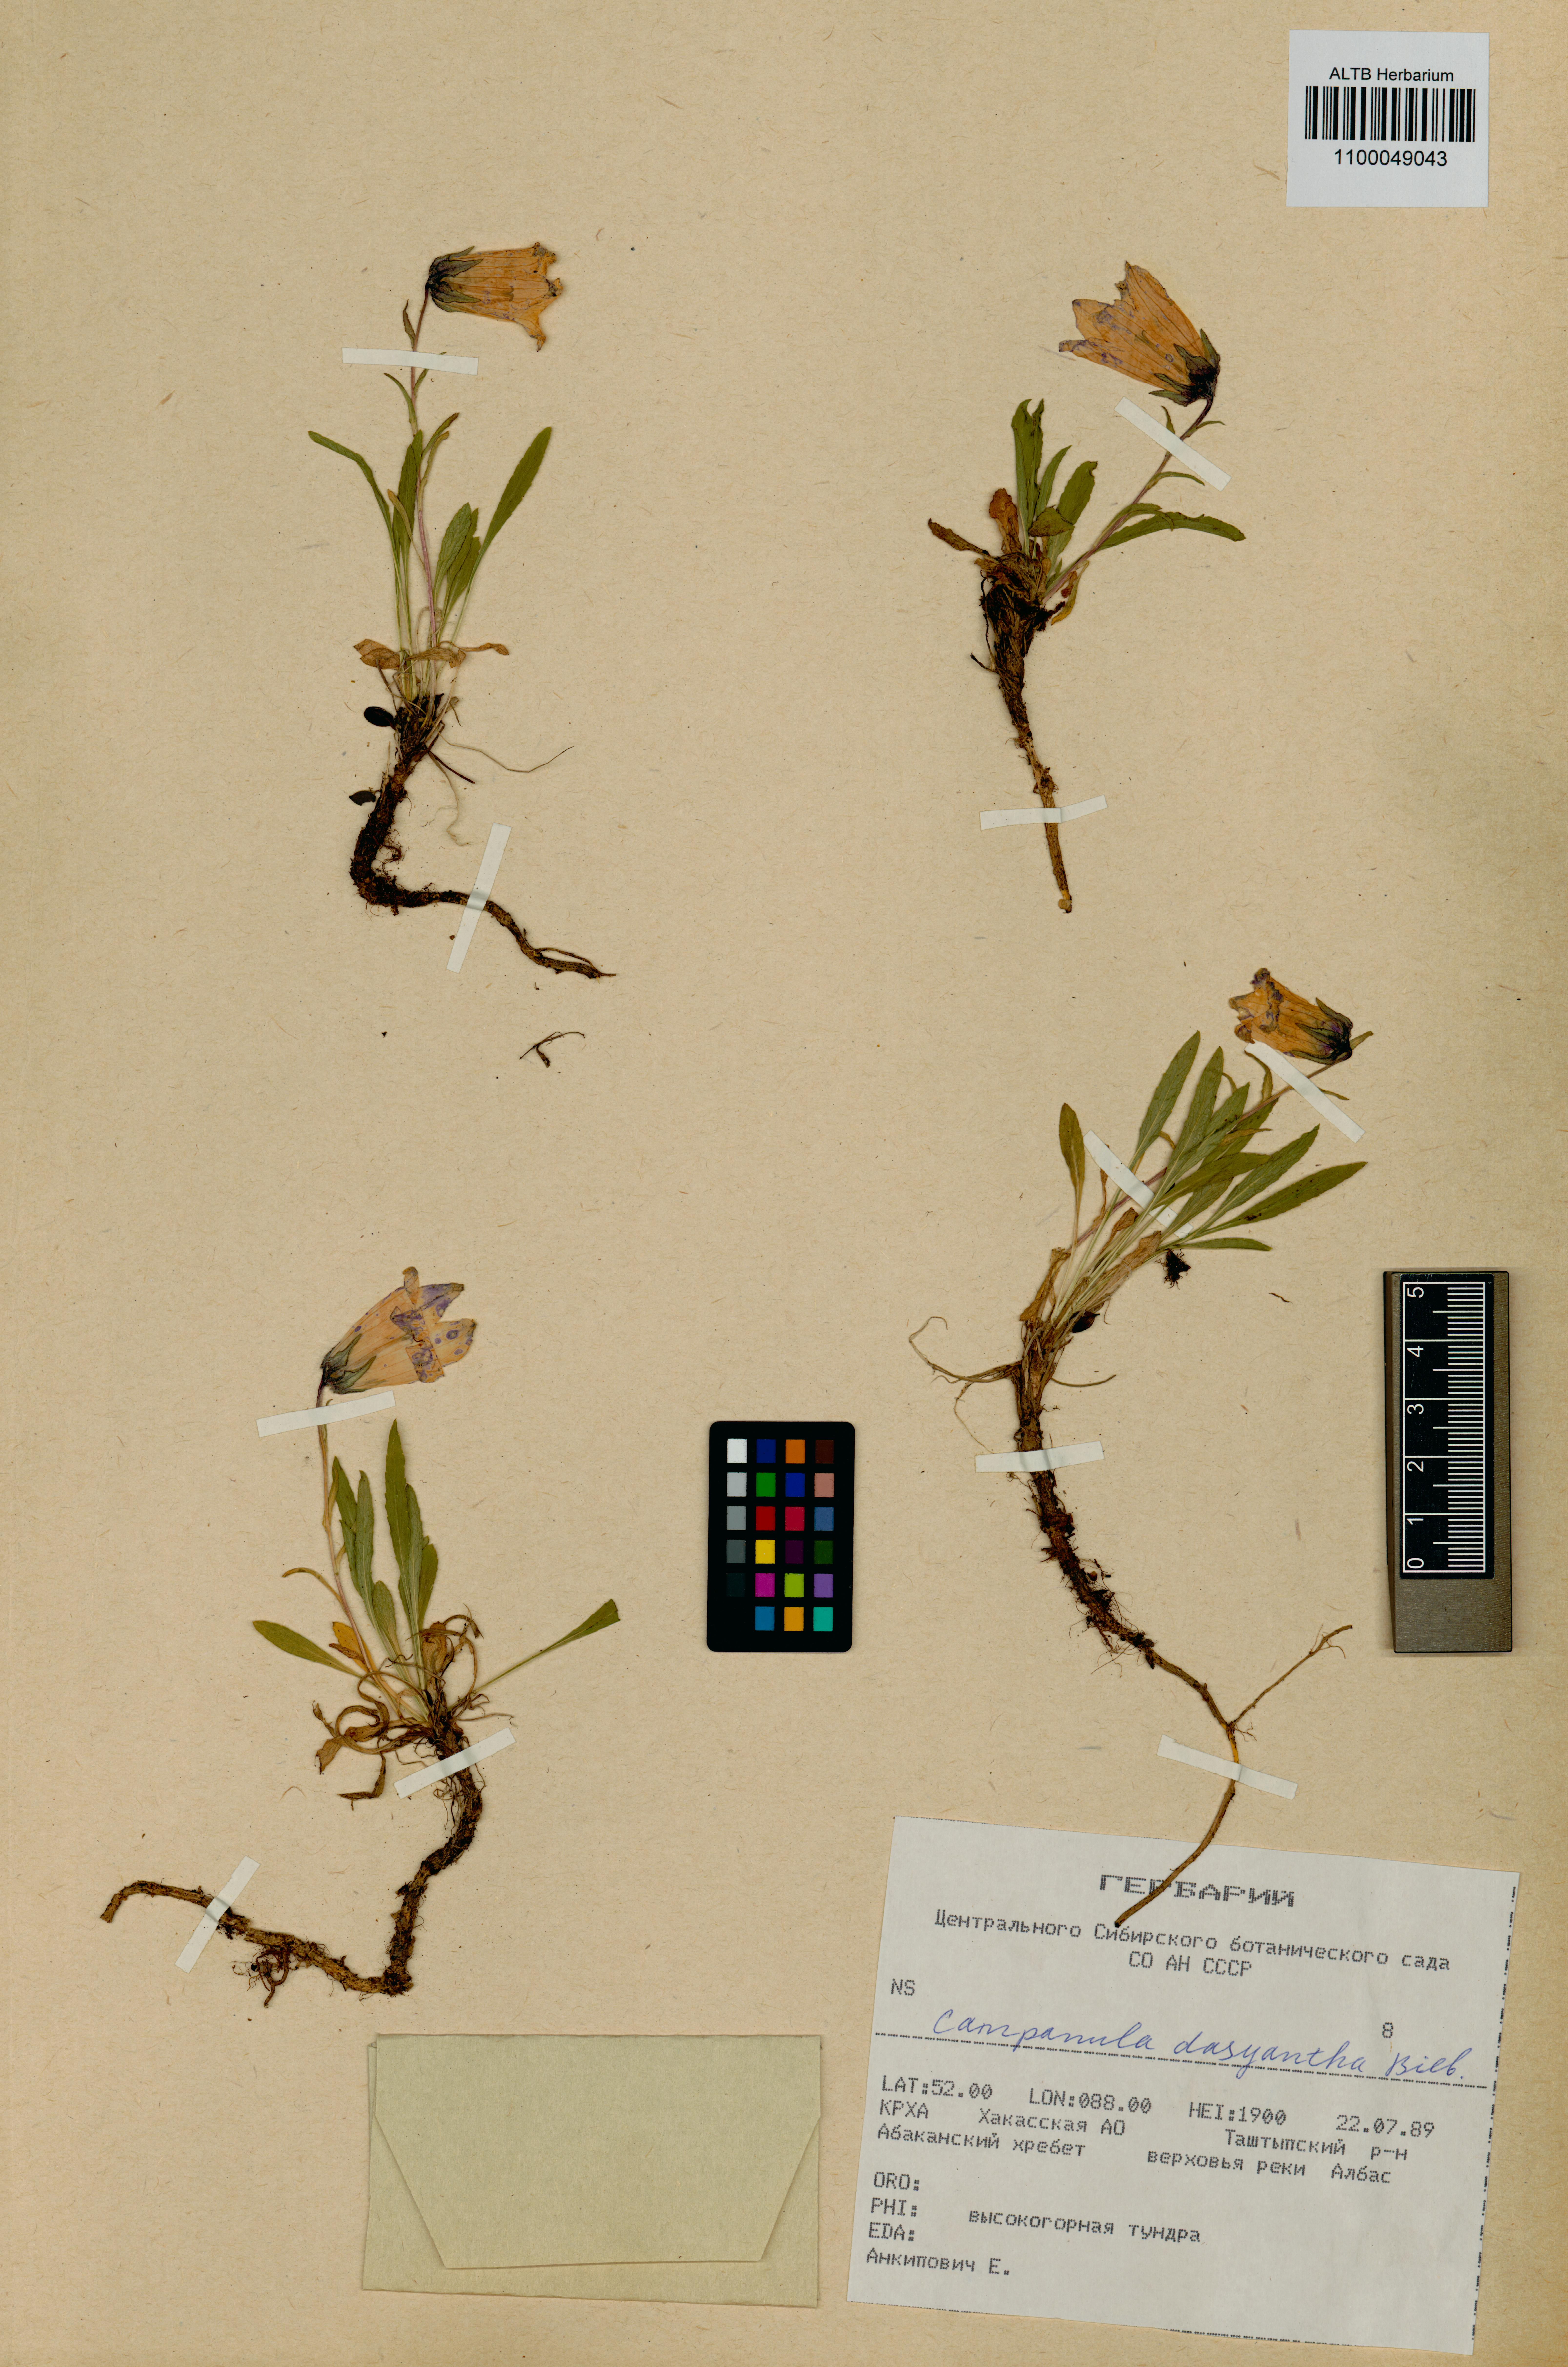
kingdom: Plantae
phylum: Tracheophyta
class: Magnoliopsida
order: Asterales
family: Campanulaceae
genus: Campanula
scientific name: Campanula dasyantha
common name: Hairyflower bellflower
